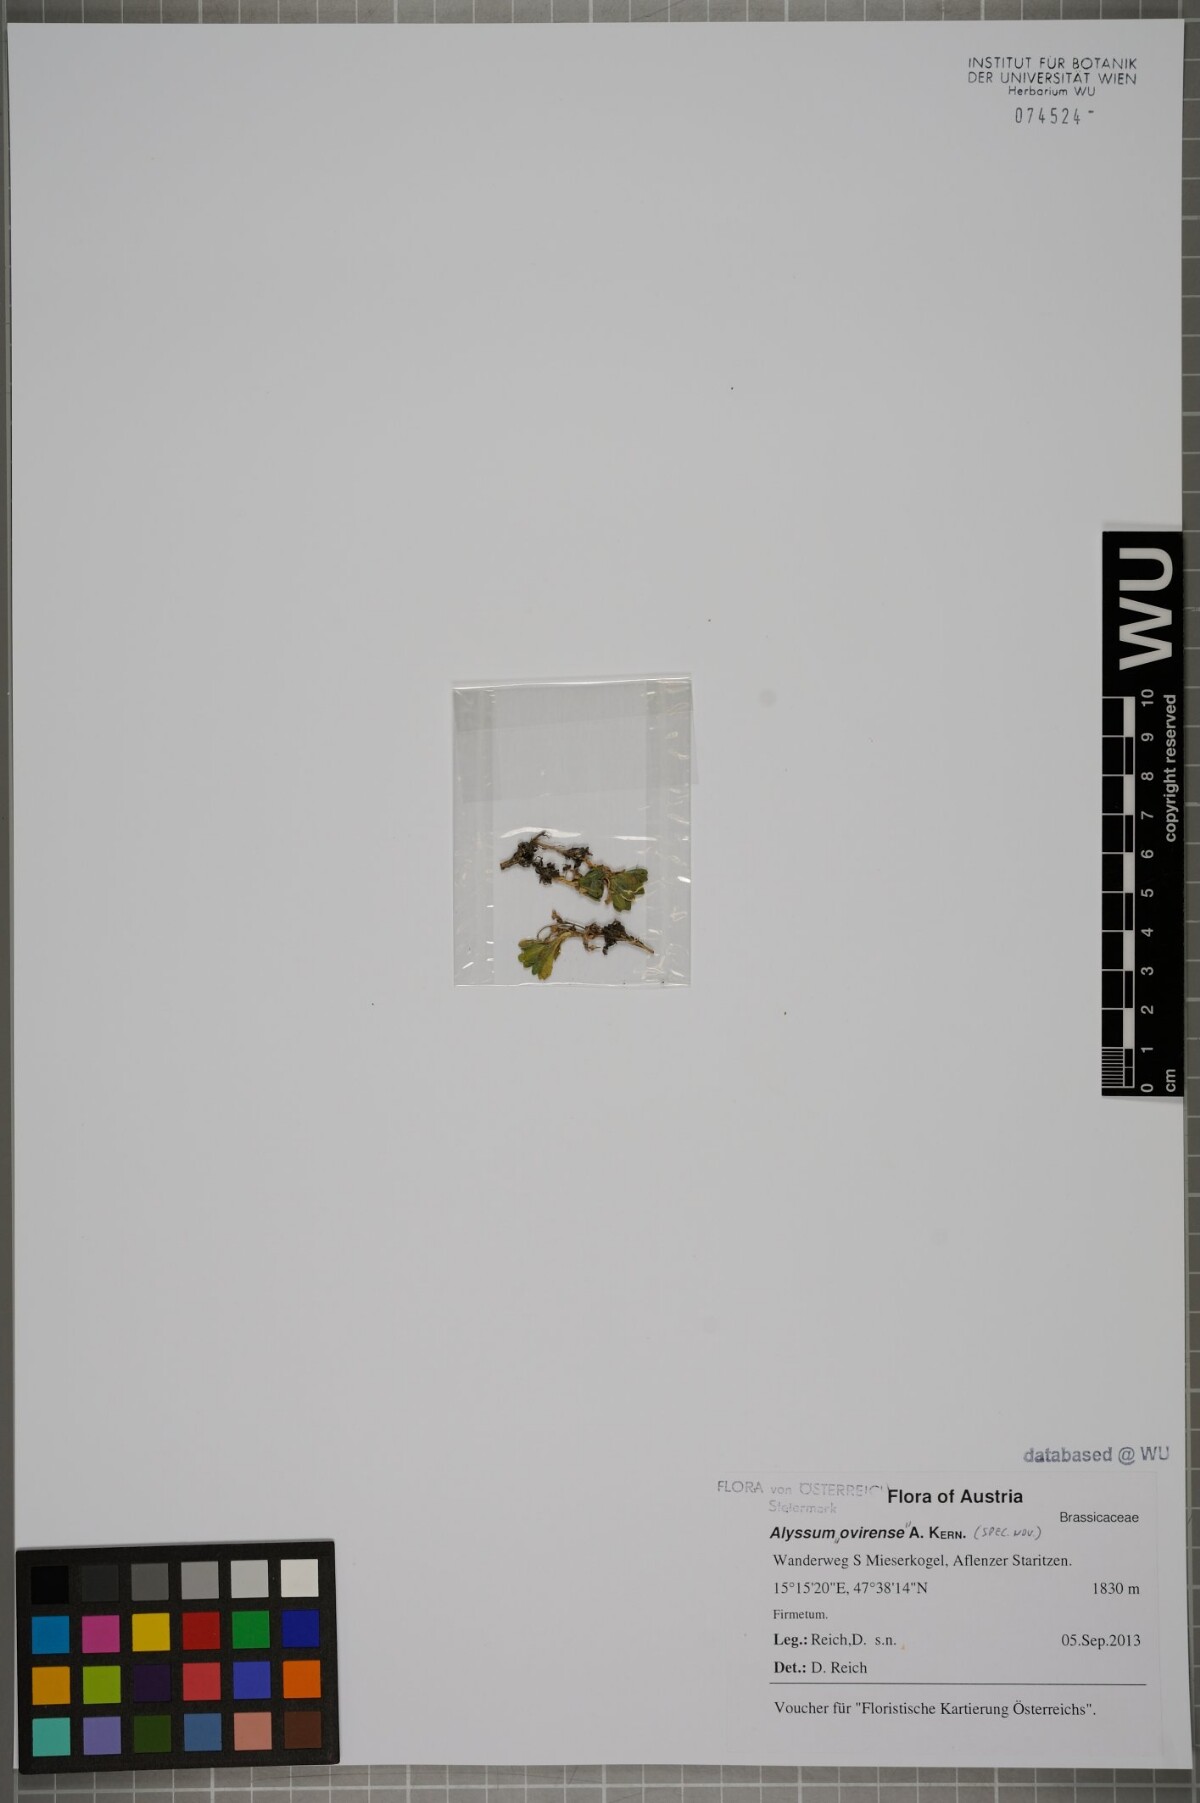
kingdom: Plantae
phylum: Tracheophyta
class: Magnoliopsida
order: Brassicales
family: Brassicaceae
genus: Alyssum
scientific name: Alyssum neglectum
